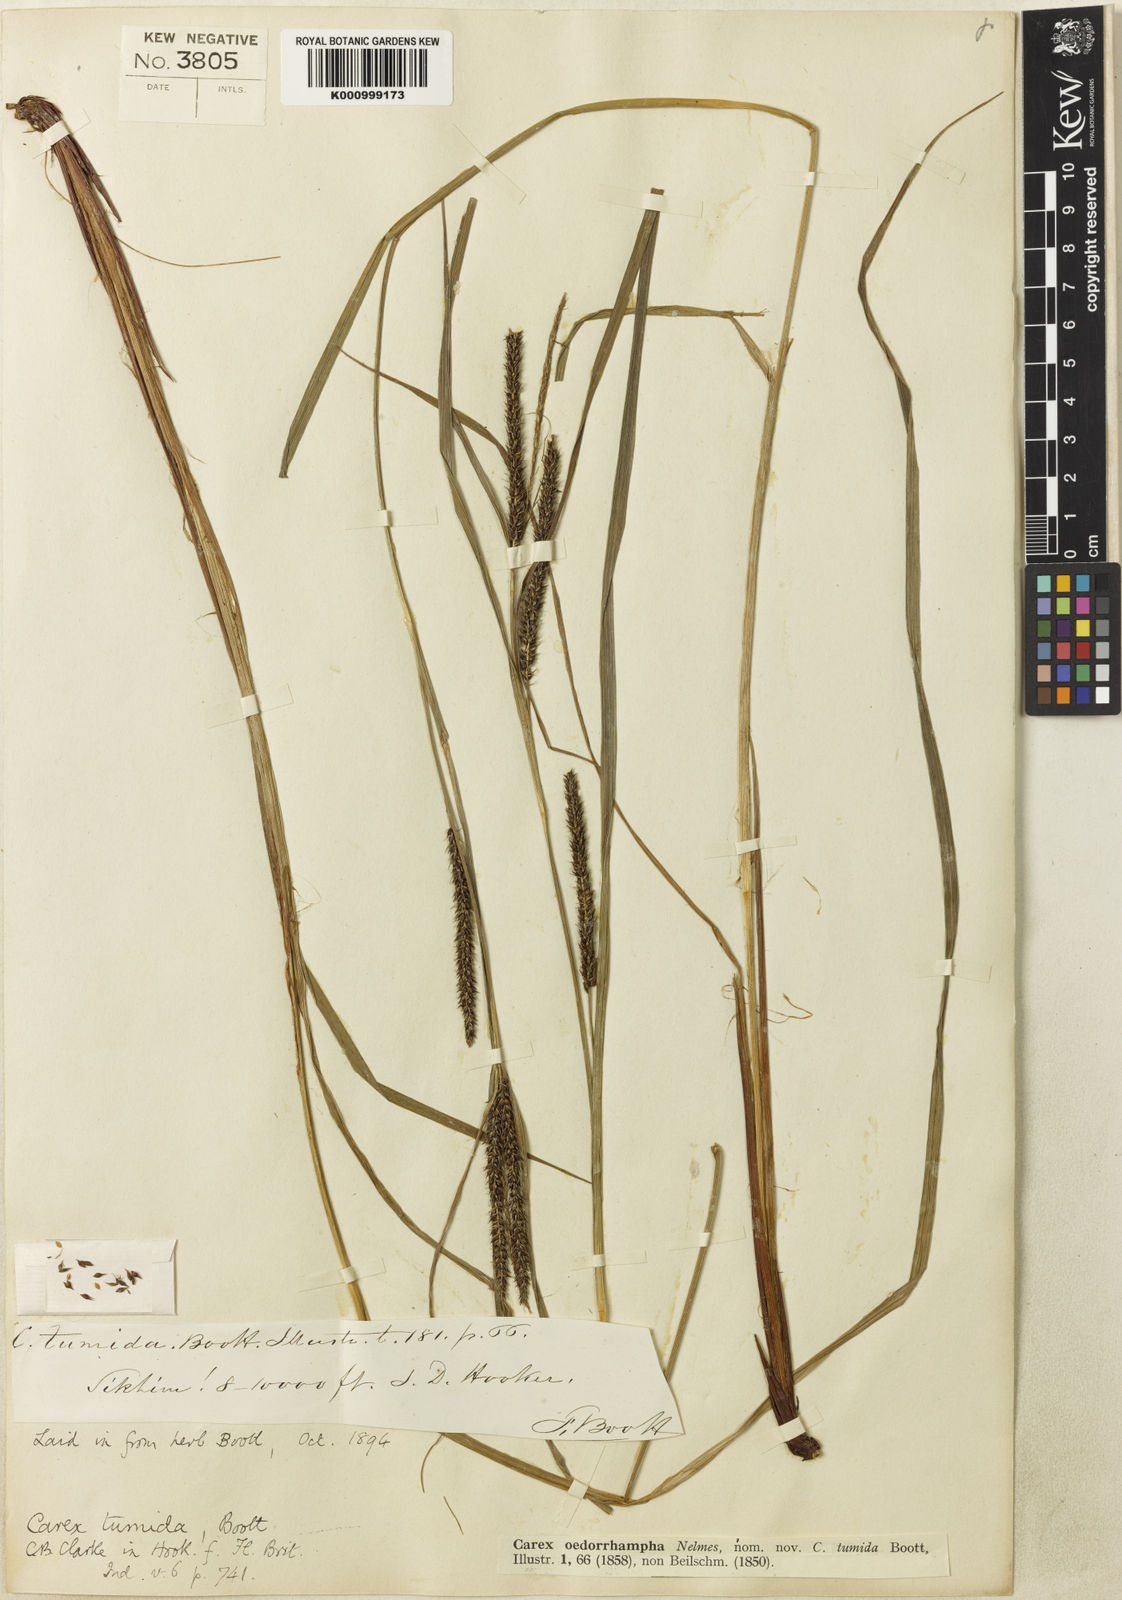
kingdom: Plantae
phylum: Tracheophyta
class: Liliopsida
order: Poales
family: Cyperaceae
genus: Carex
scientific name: Carex tumida
